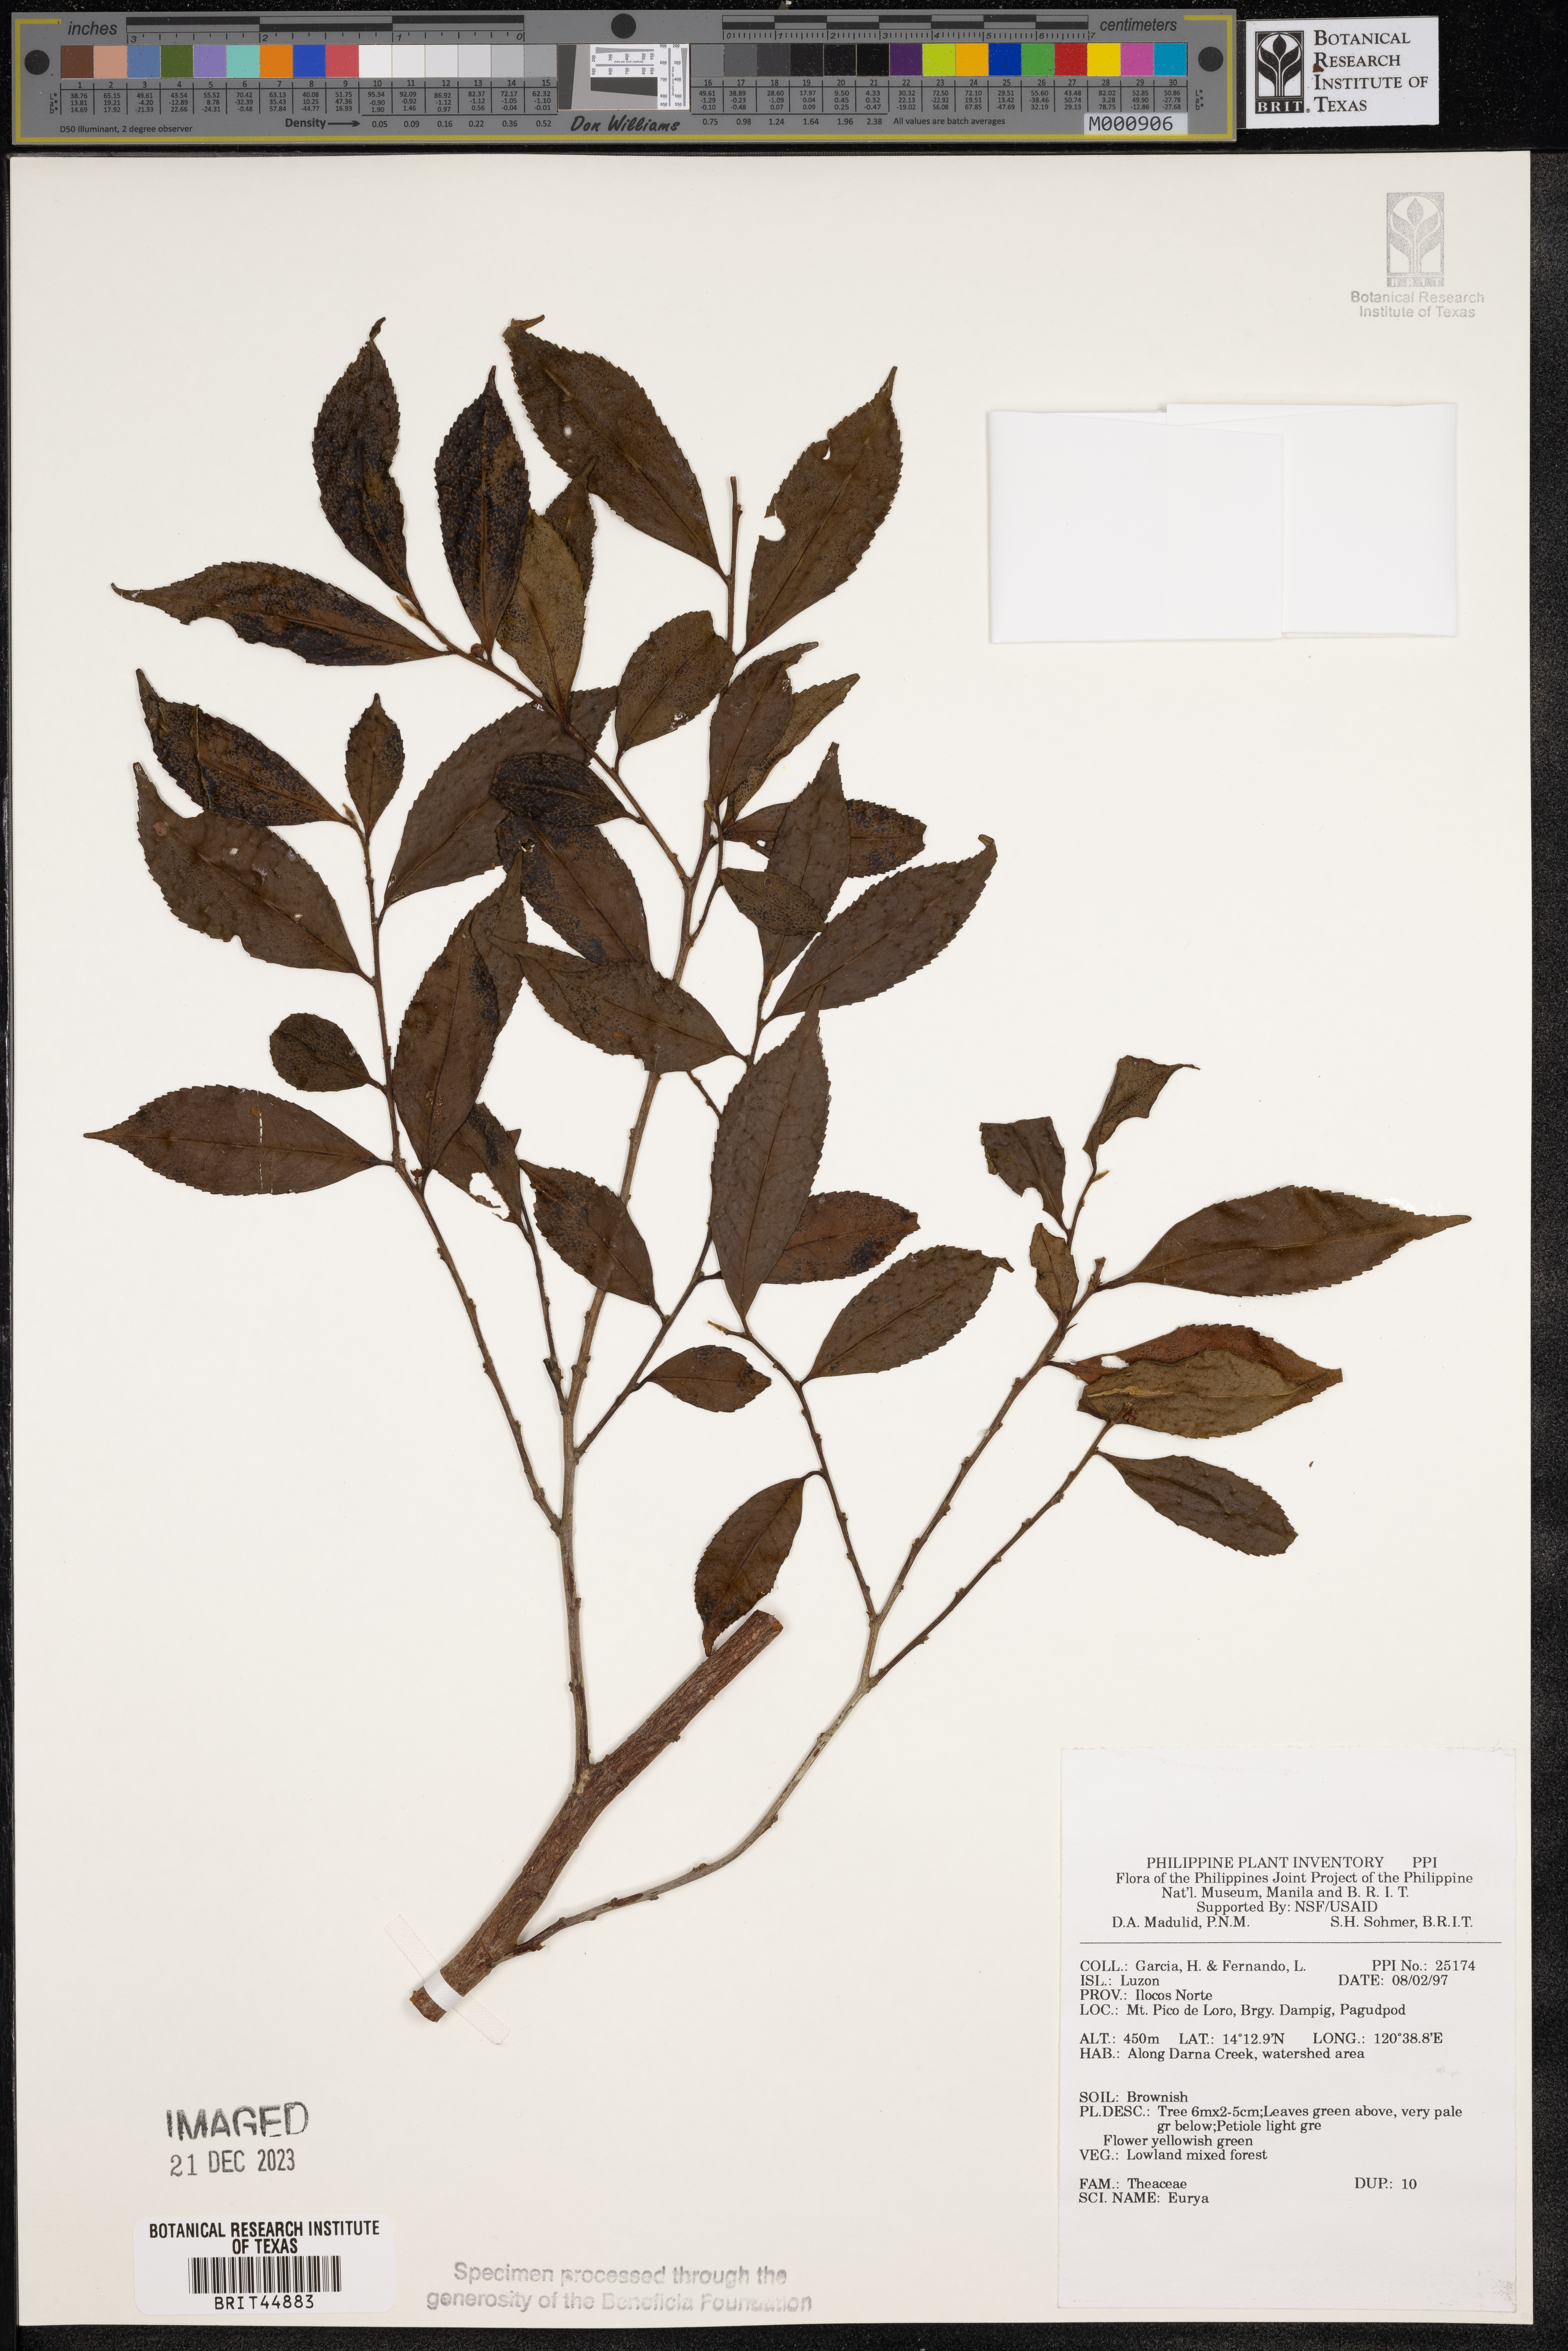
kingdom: Plantae
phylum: Tracheophyta
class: Magnoliopsida
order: Ericales
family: Pentaphylacaceae
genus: Eurya
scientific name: Eurya
